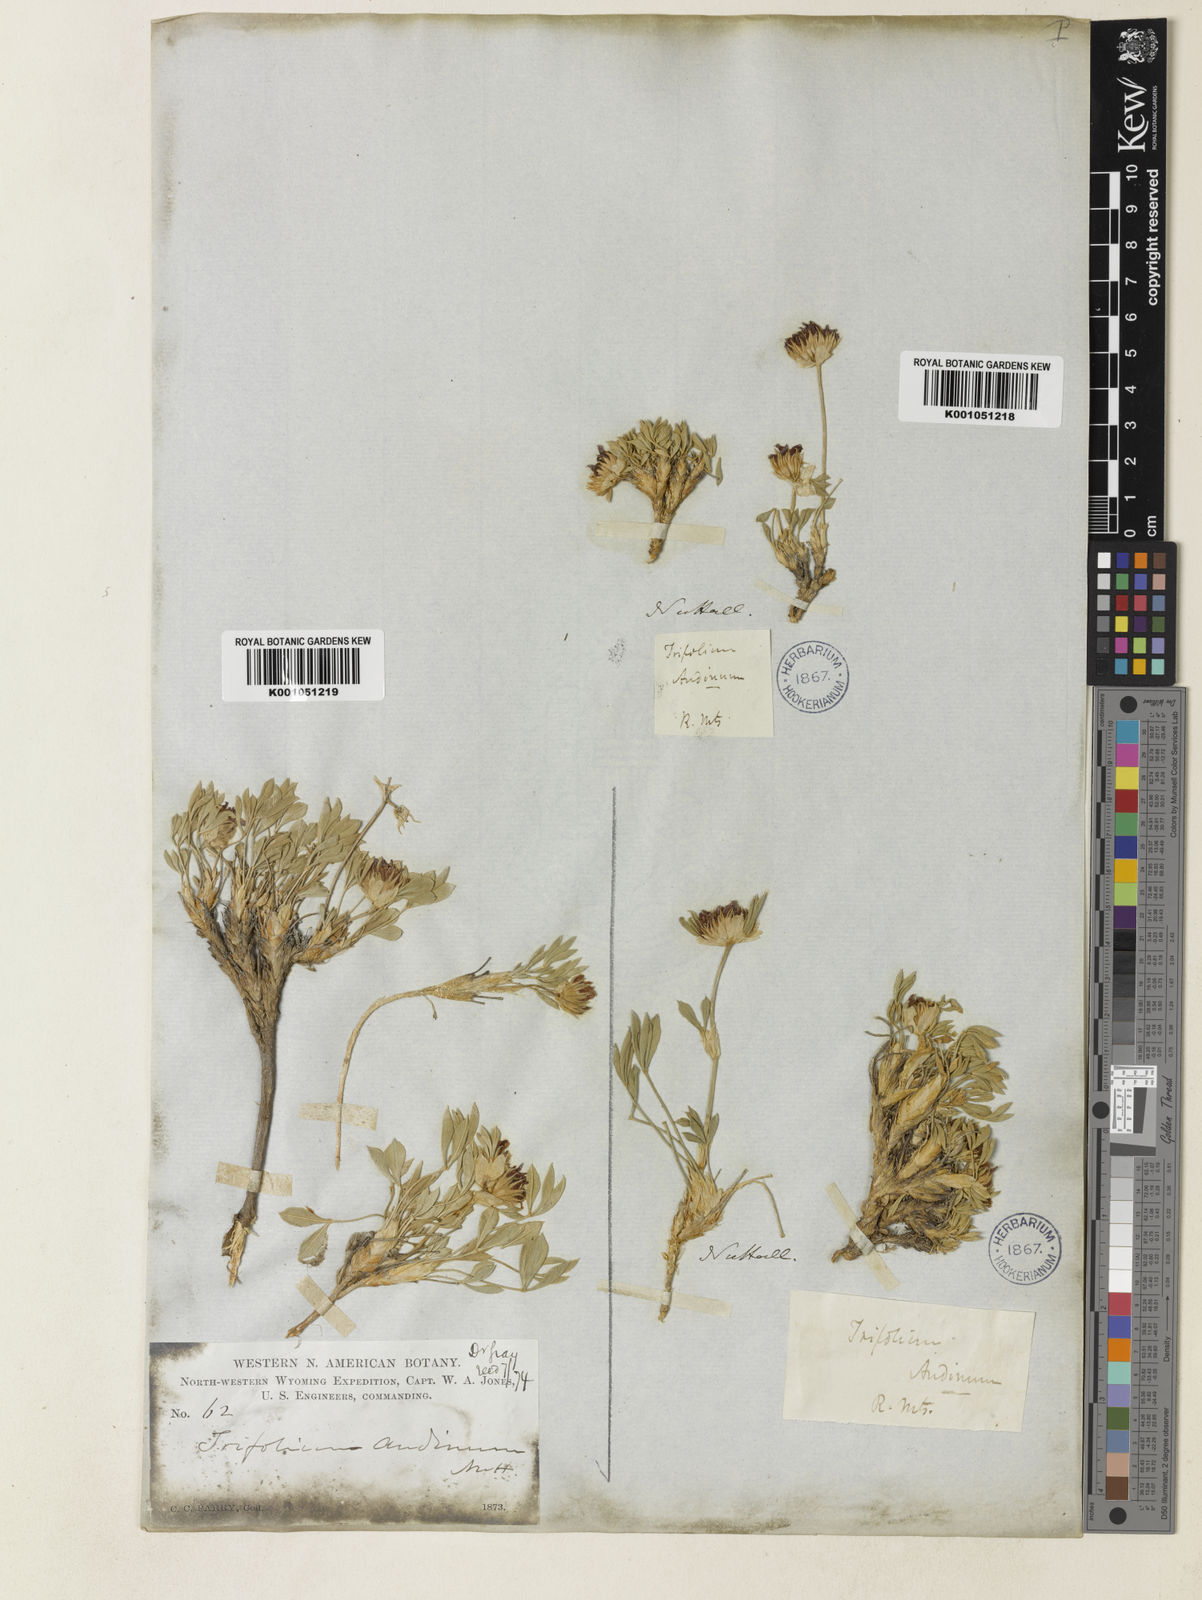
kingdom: Plantae
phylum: Tracheophyta
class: Magnoliopsida
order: Fabales
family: Fabaceae
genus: Trifolium
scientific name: Trifolium andinum
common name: Andean clover
